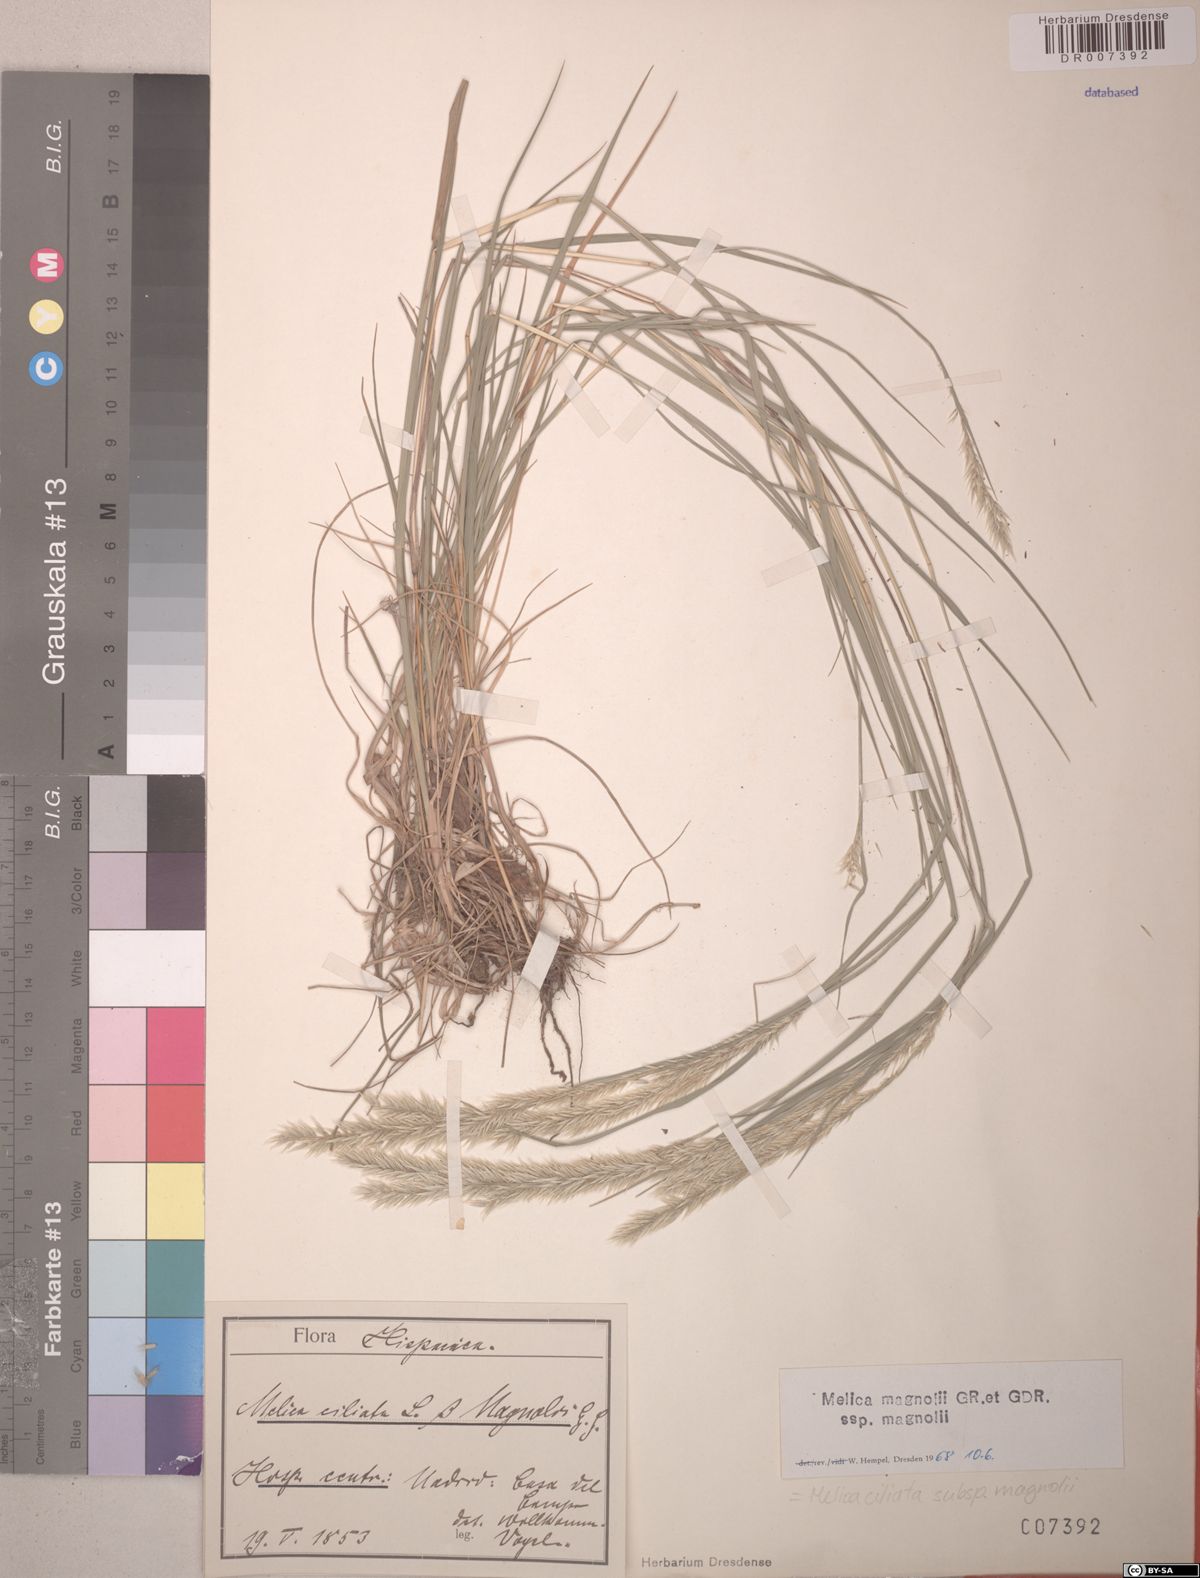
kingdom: Plantae
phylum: Tracheophyta
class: Liliopsida
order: Poales
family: Poaceae
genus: Melica
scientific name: Melica ciliata
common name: Hairy melicgrass
